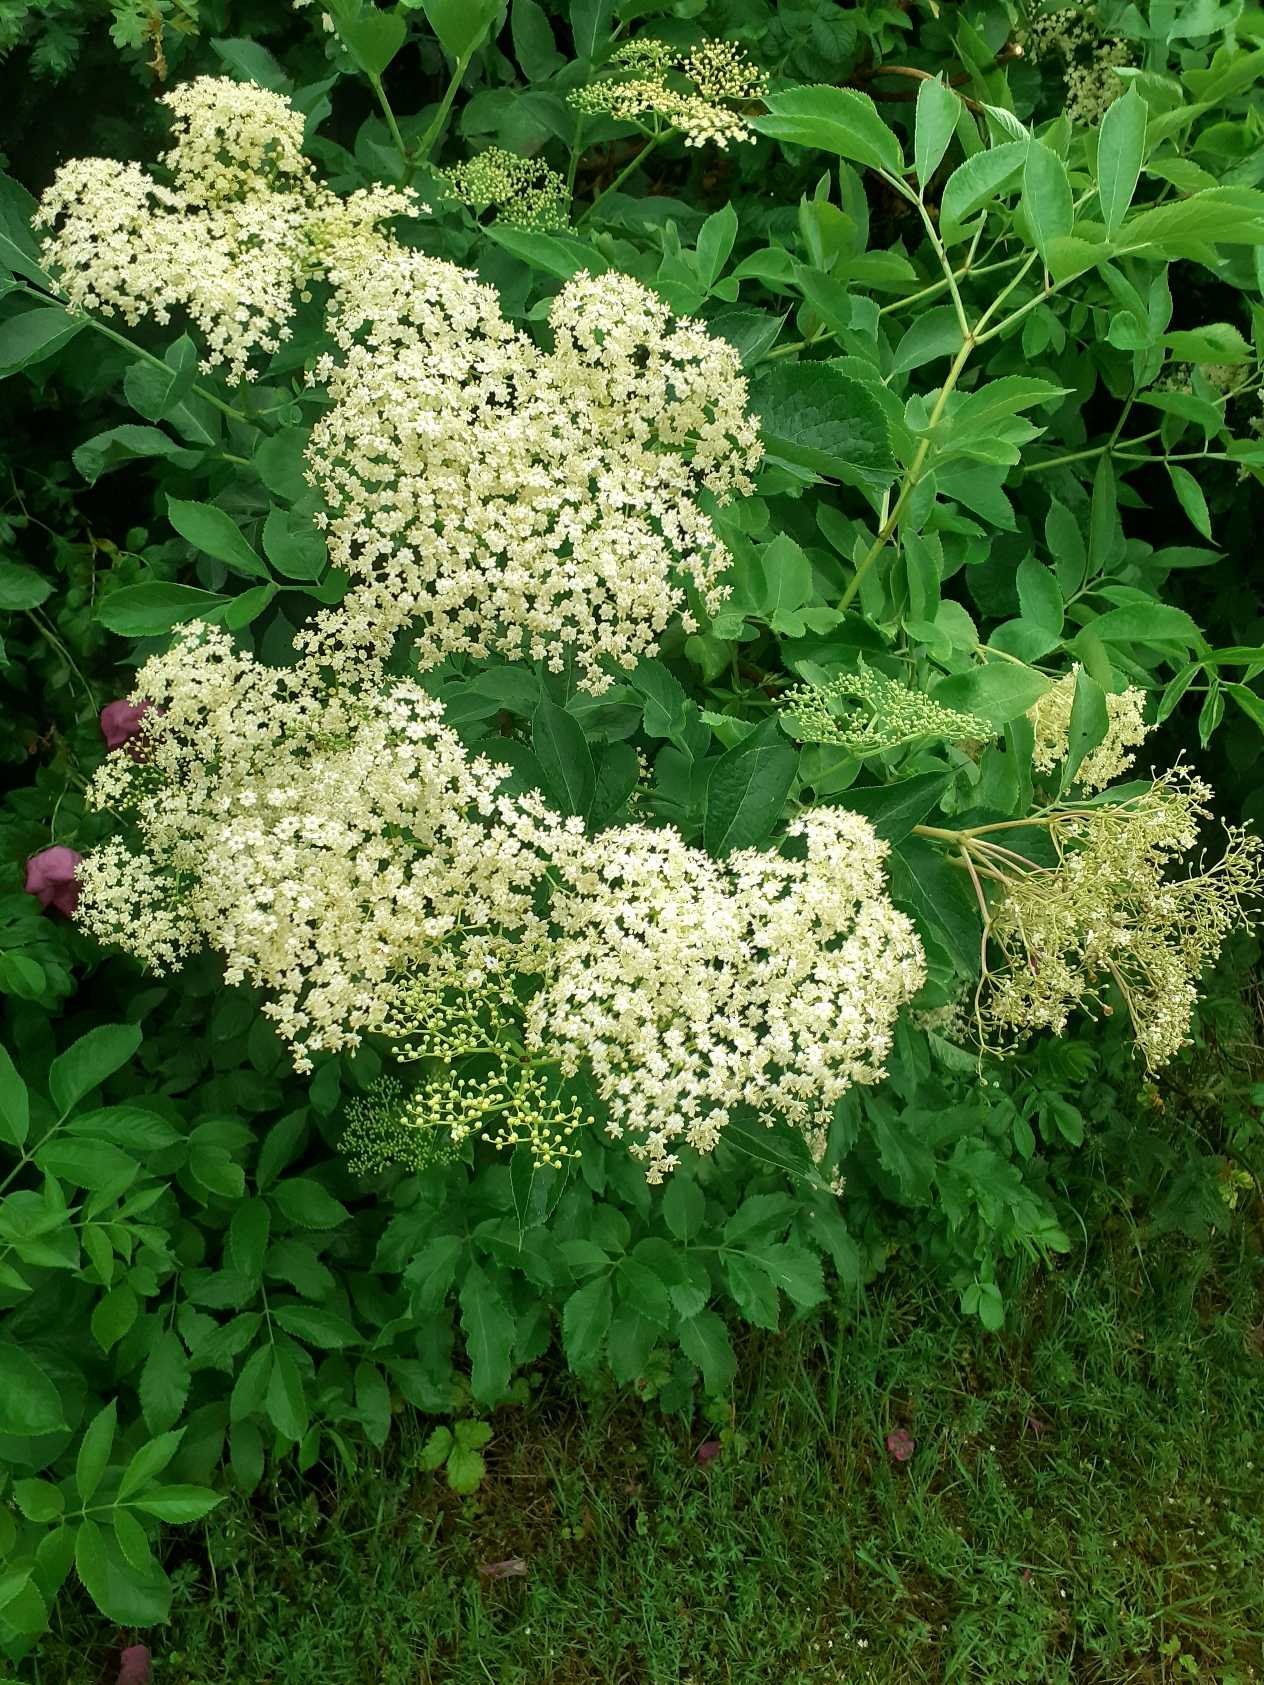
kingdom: Plantae
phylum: Tracheophyta
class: Magnoliopsida
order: Dipsacales
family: Viburnaceae
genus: Sambucus
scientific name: Sambucus nigra
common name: Almindelig hyld
